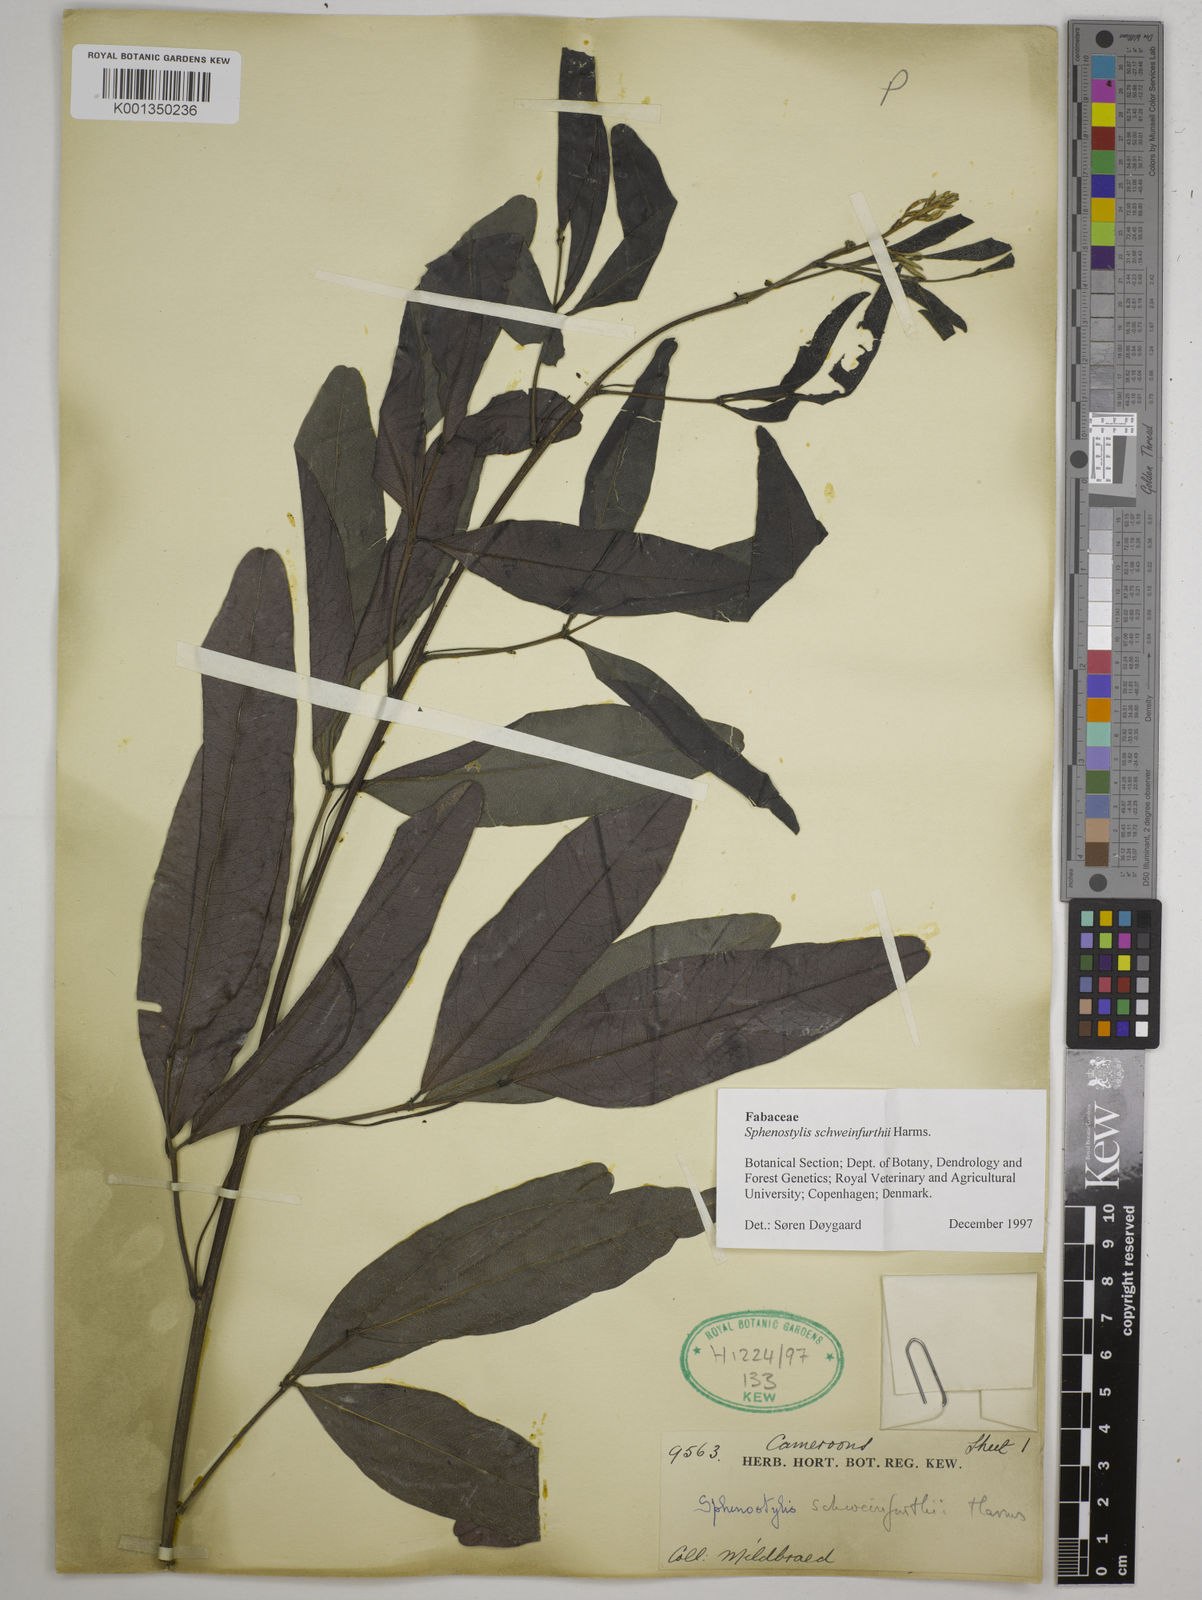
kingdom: Plantae
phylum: Tracheophyta
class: Magnoliopsida
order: Fabales
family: Fabaceae
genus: Sphenostylis
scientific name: Sphenostylis schweinfurthii
